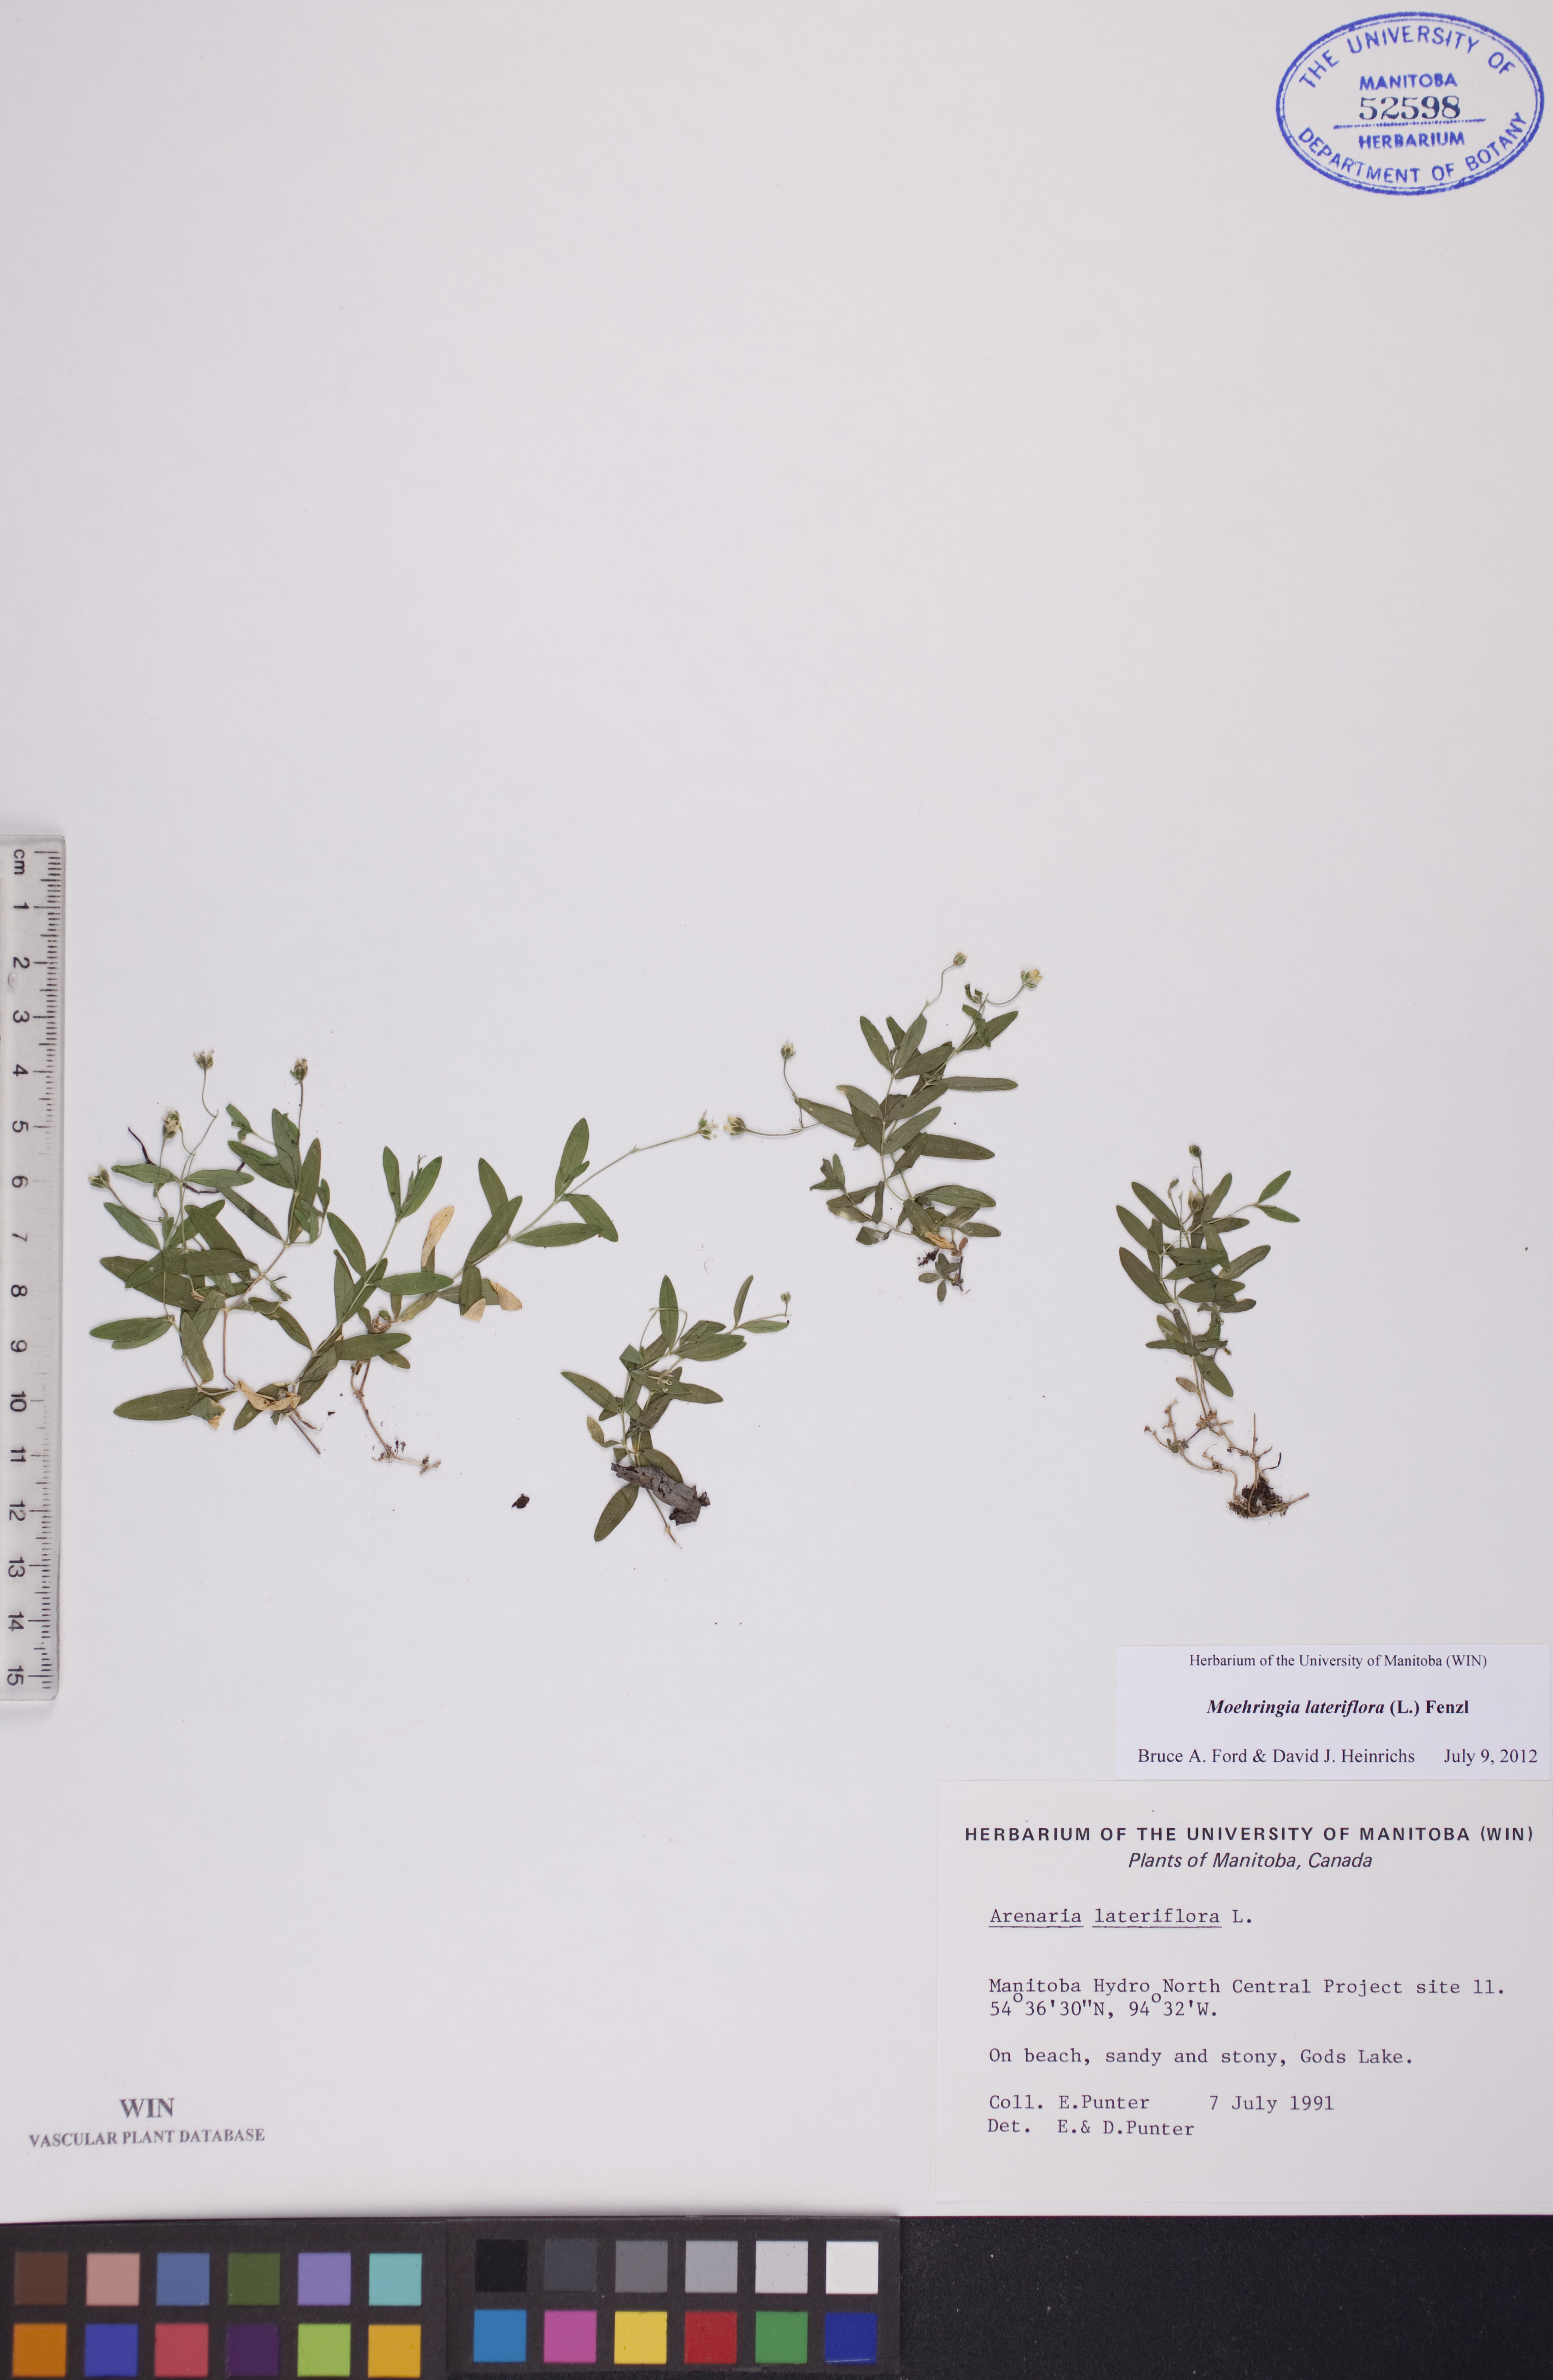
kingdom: Plantae
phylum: Tracheophyta
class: Magnoliopsida
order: Caryophyllales
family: Caryophyllaceae
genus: Moehringia
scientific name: Moehringia lateriflora
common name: Blunt-leaved sandwort
